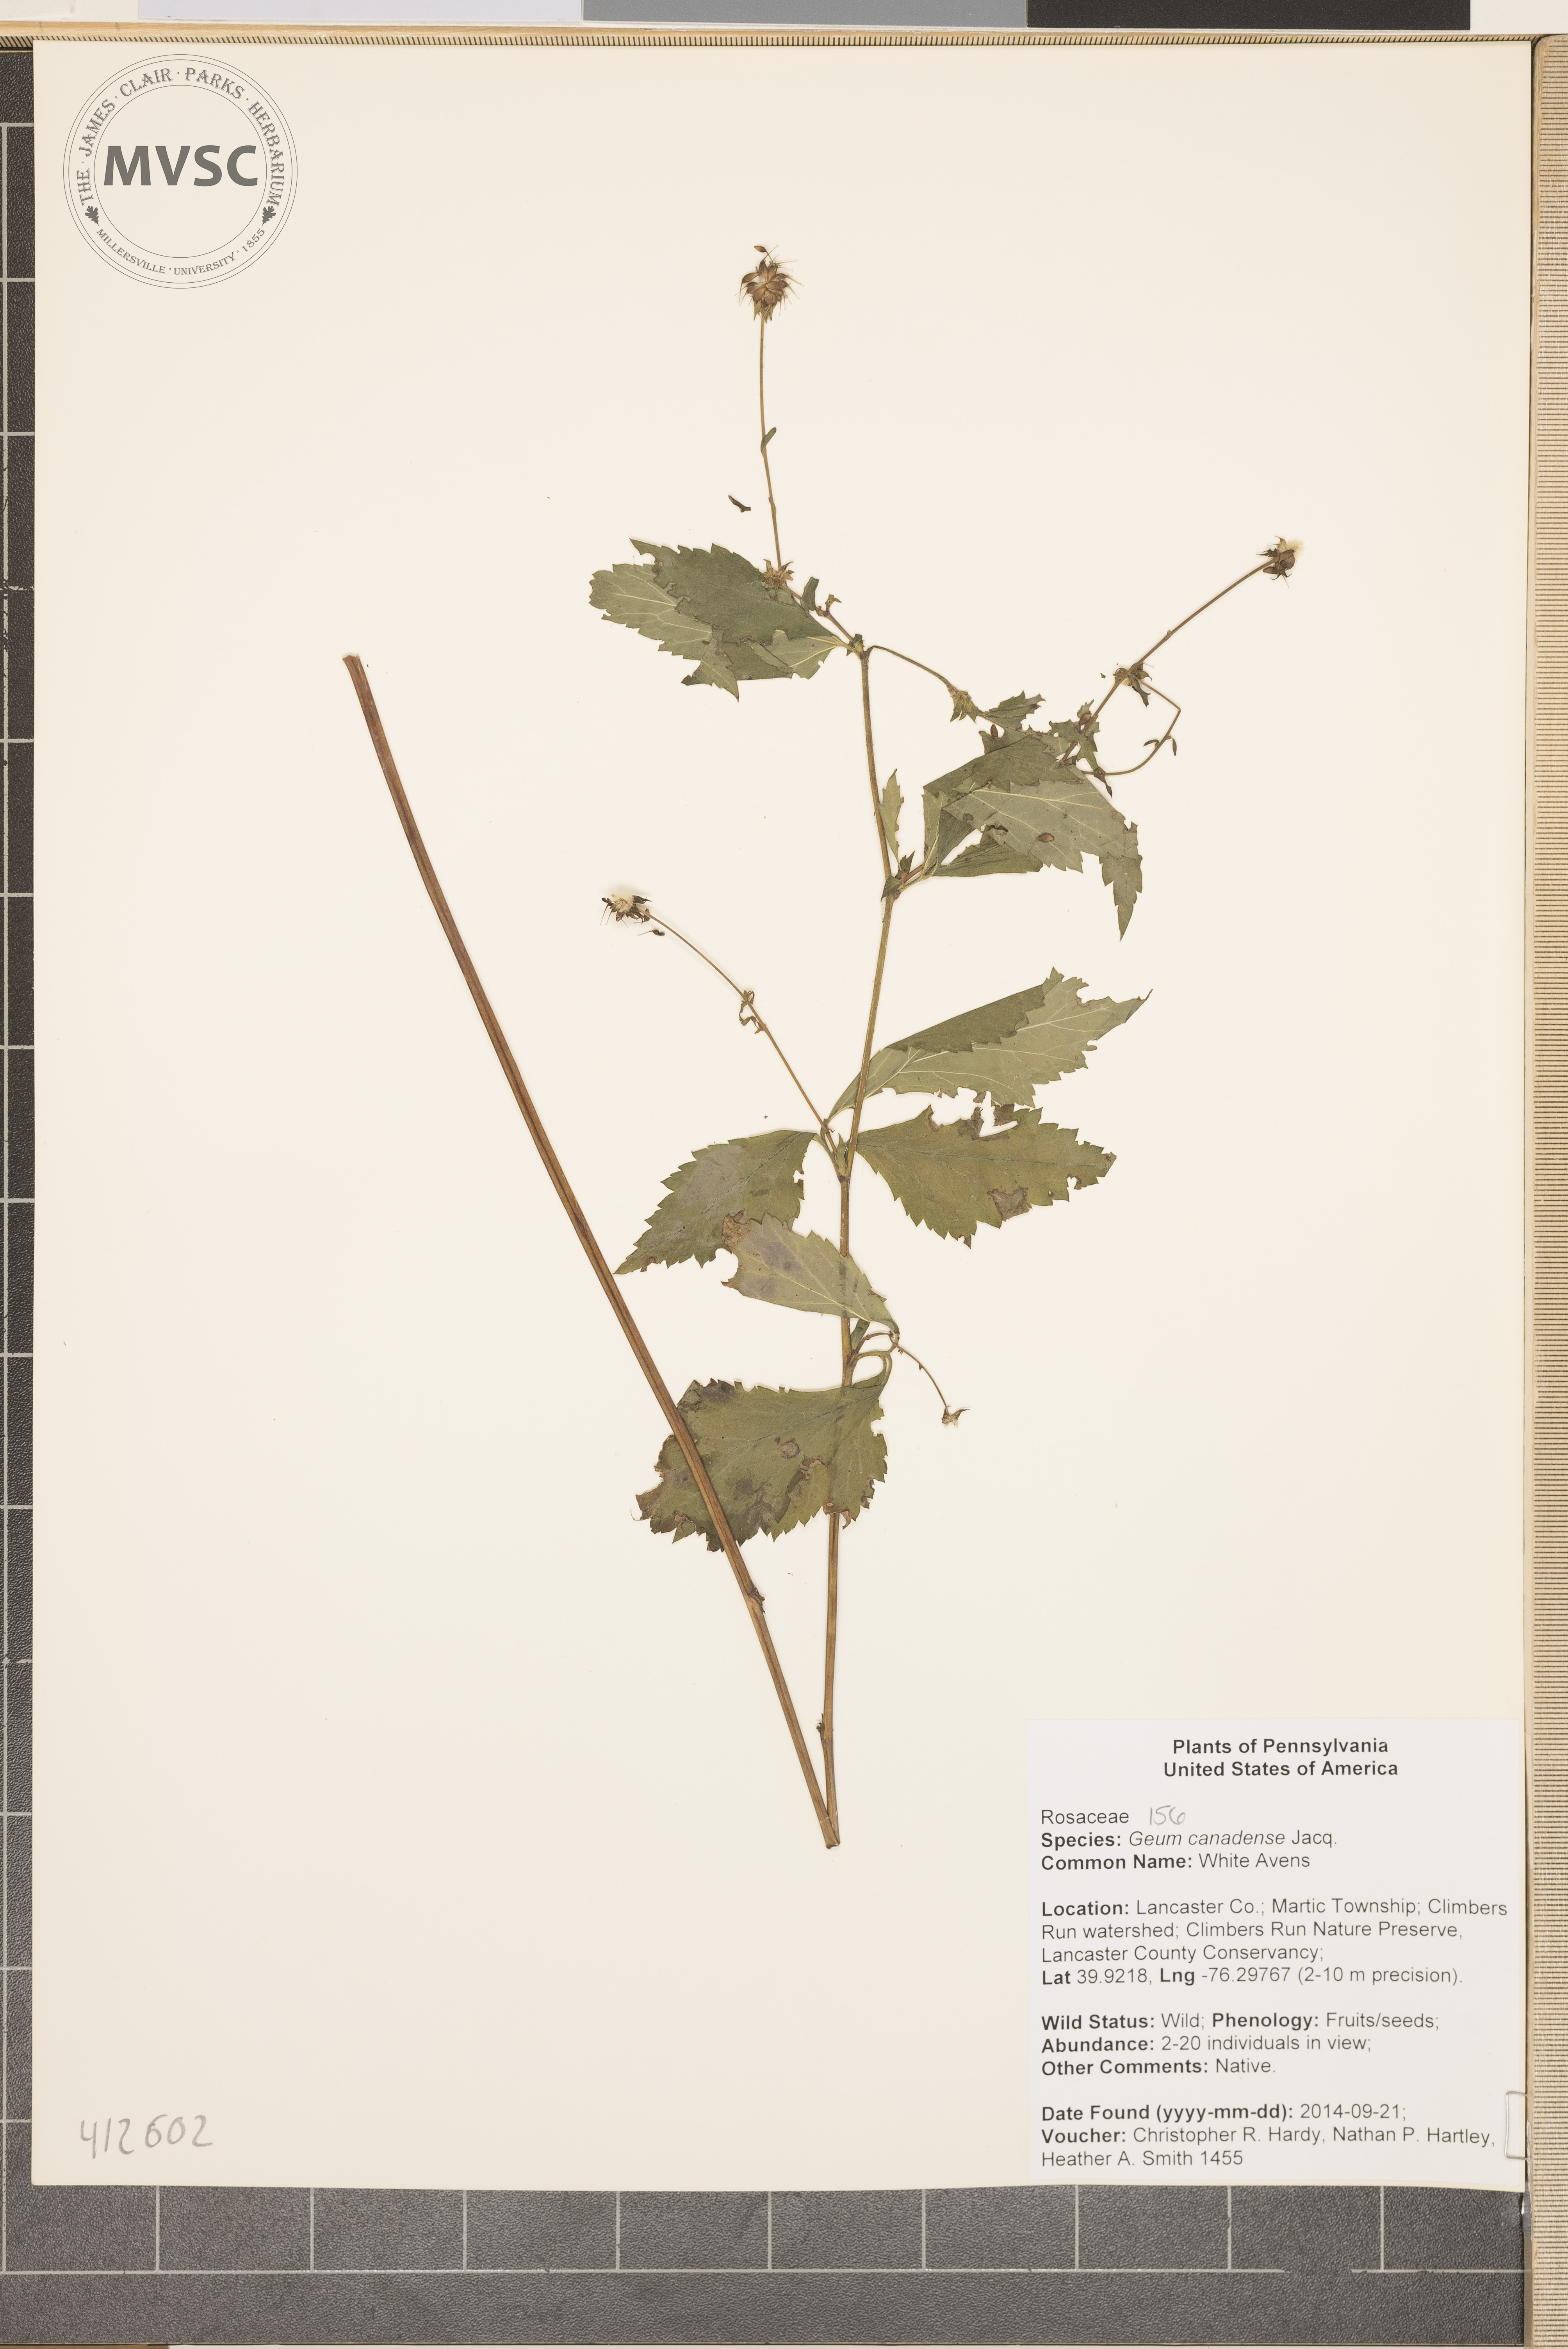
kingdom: Plantae
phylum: Tracheophyta
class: Magnoliopsida
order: Rosales
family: Rosaceae
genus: Geum
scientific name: Geum canadense
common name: white avens
